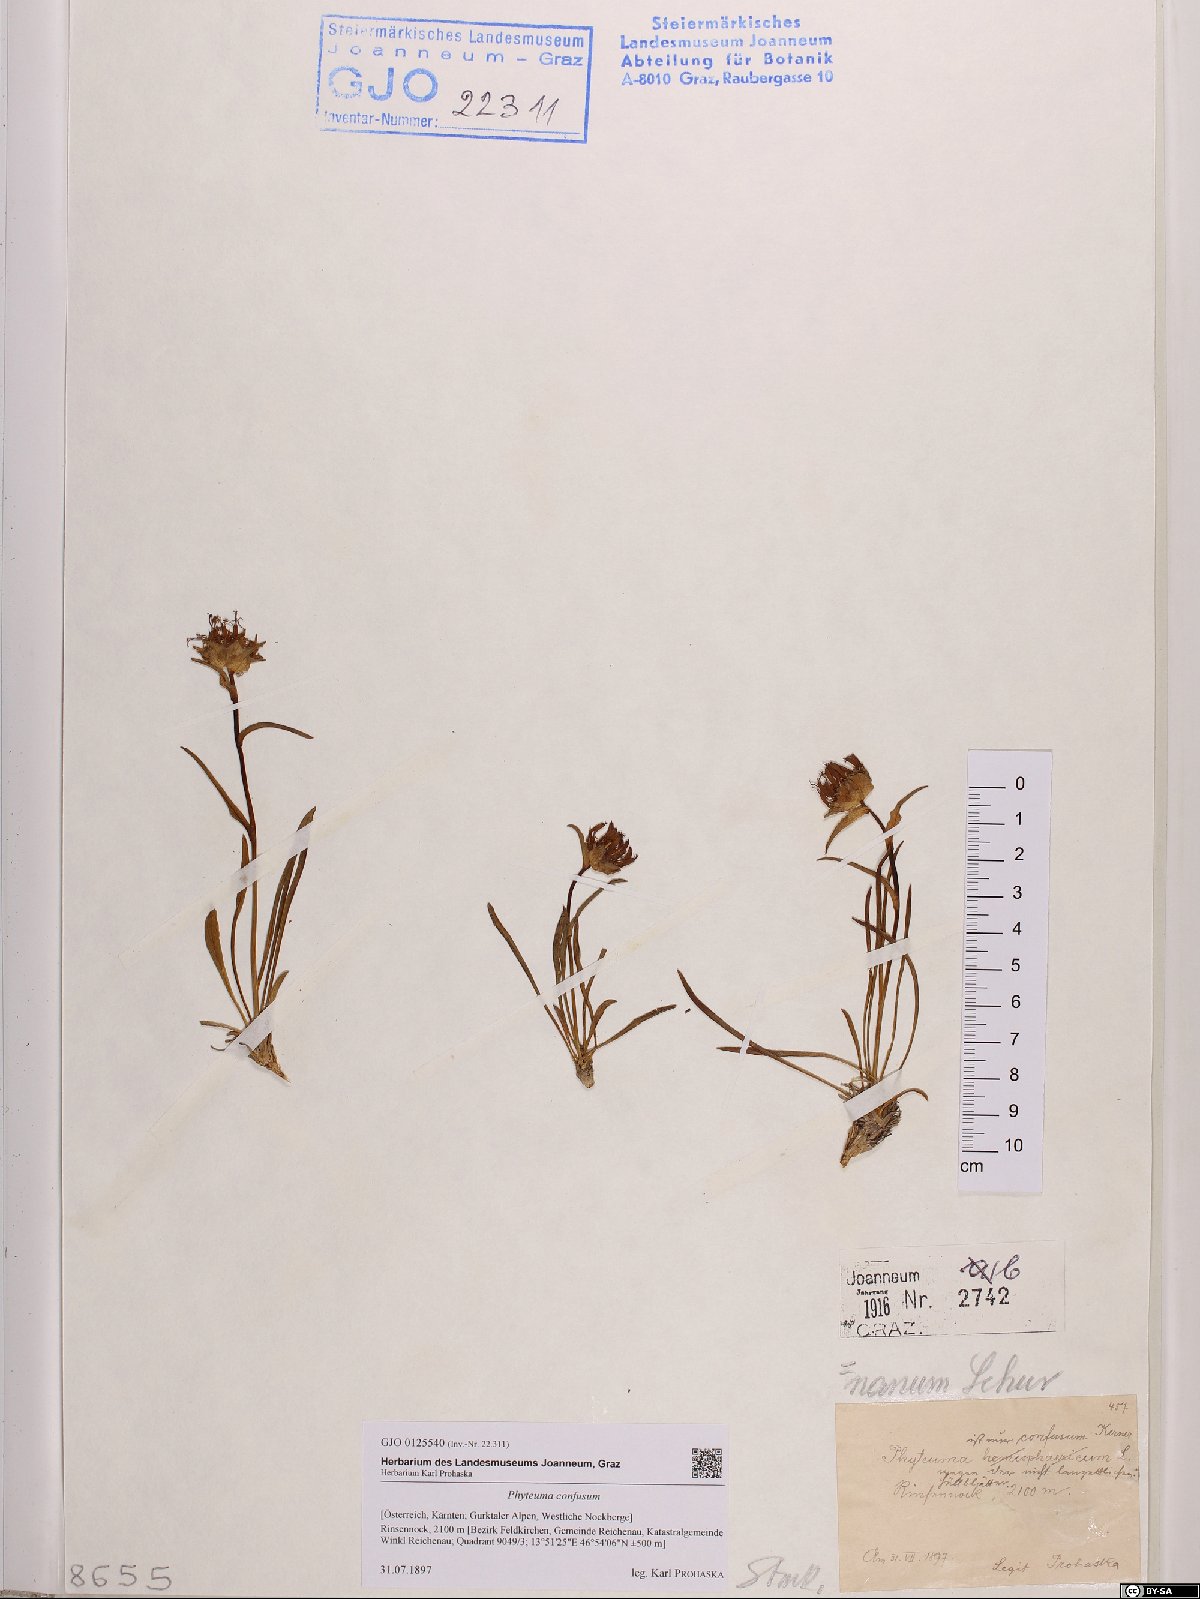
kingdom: Plantae
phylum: Tracheophyta
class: Magnoliopsida
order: Asterales
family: Campanulaceae
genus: Phyteuma
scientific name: Phyteuma confusum
